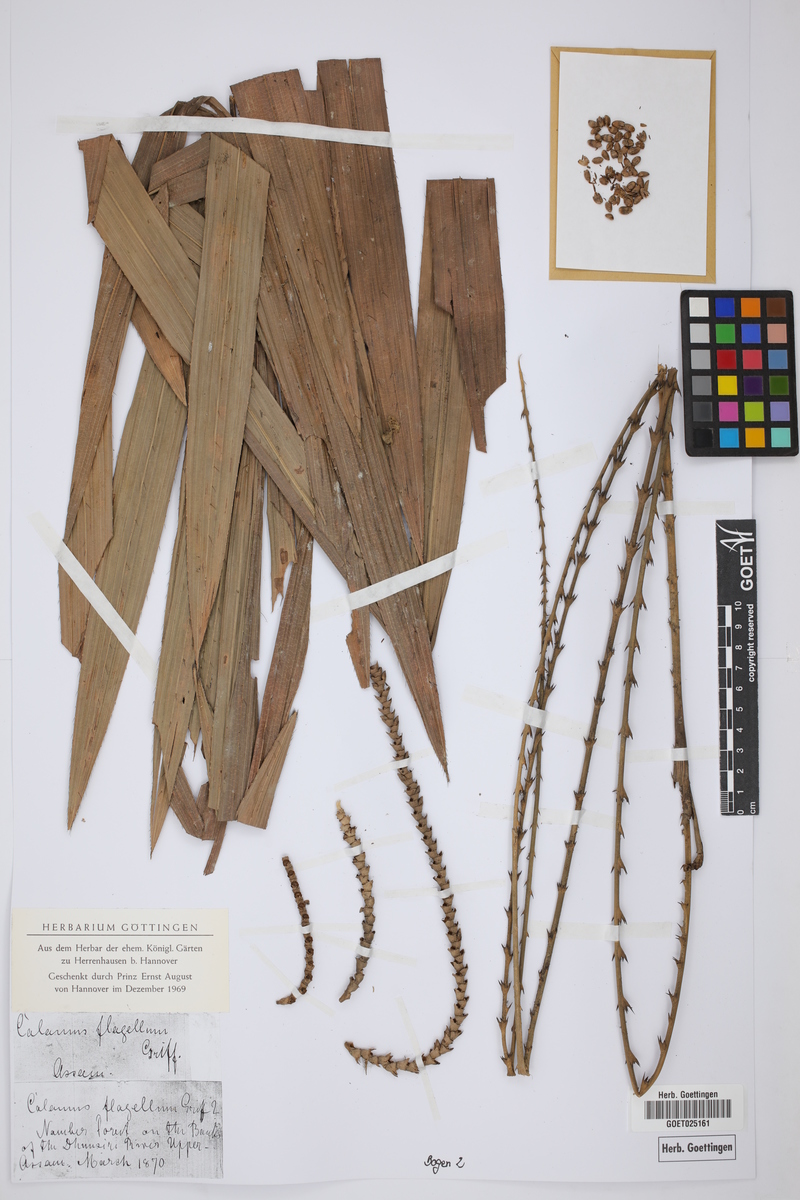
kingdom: Plantae
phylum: Tracheophyta
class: Liliopsida
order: Arecales
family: Arecaceae
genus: Calamus
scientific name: Calamus flagellum
